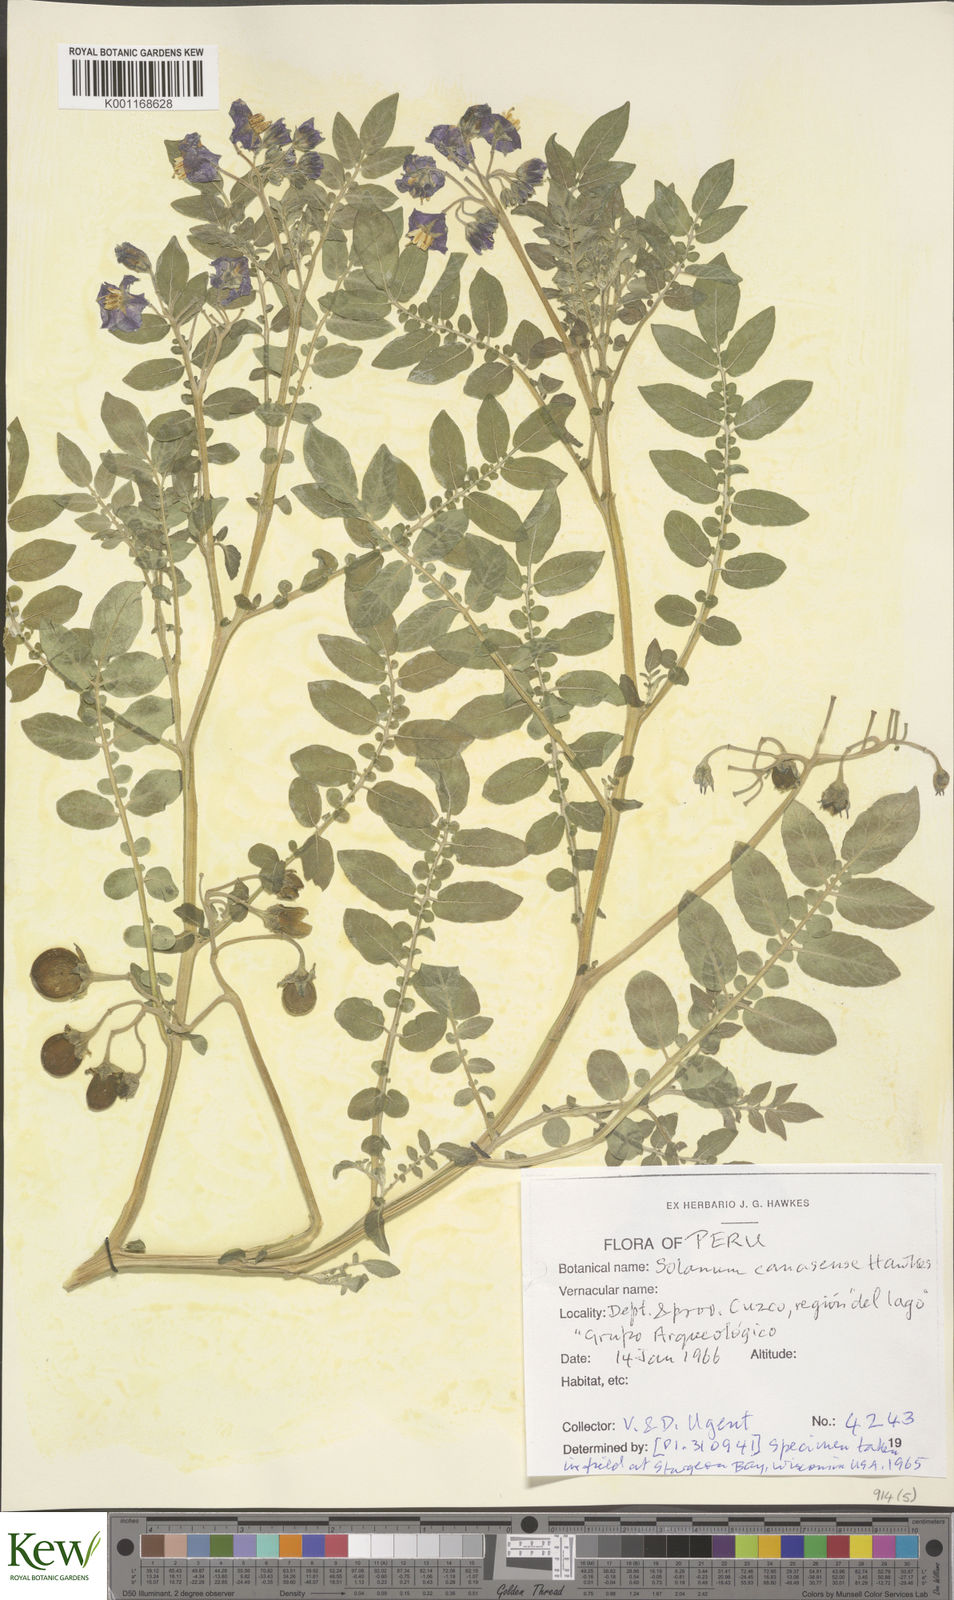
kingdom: Plantae
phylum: Tracheophyta
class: Magnoliopsida
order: Solanales
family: Solanaceae
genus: Solanum
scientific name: Solanum candolleanum
